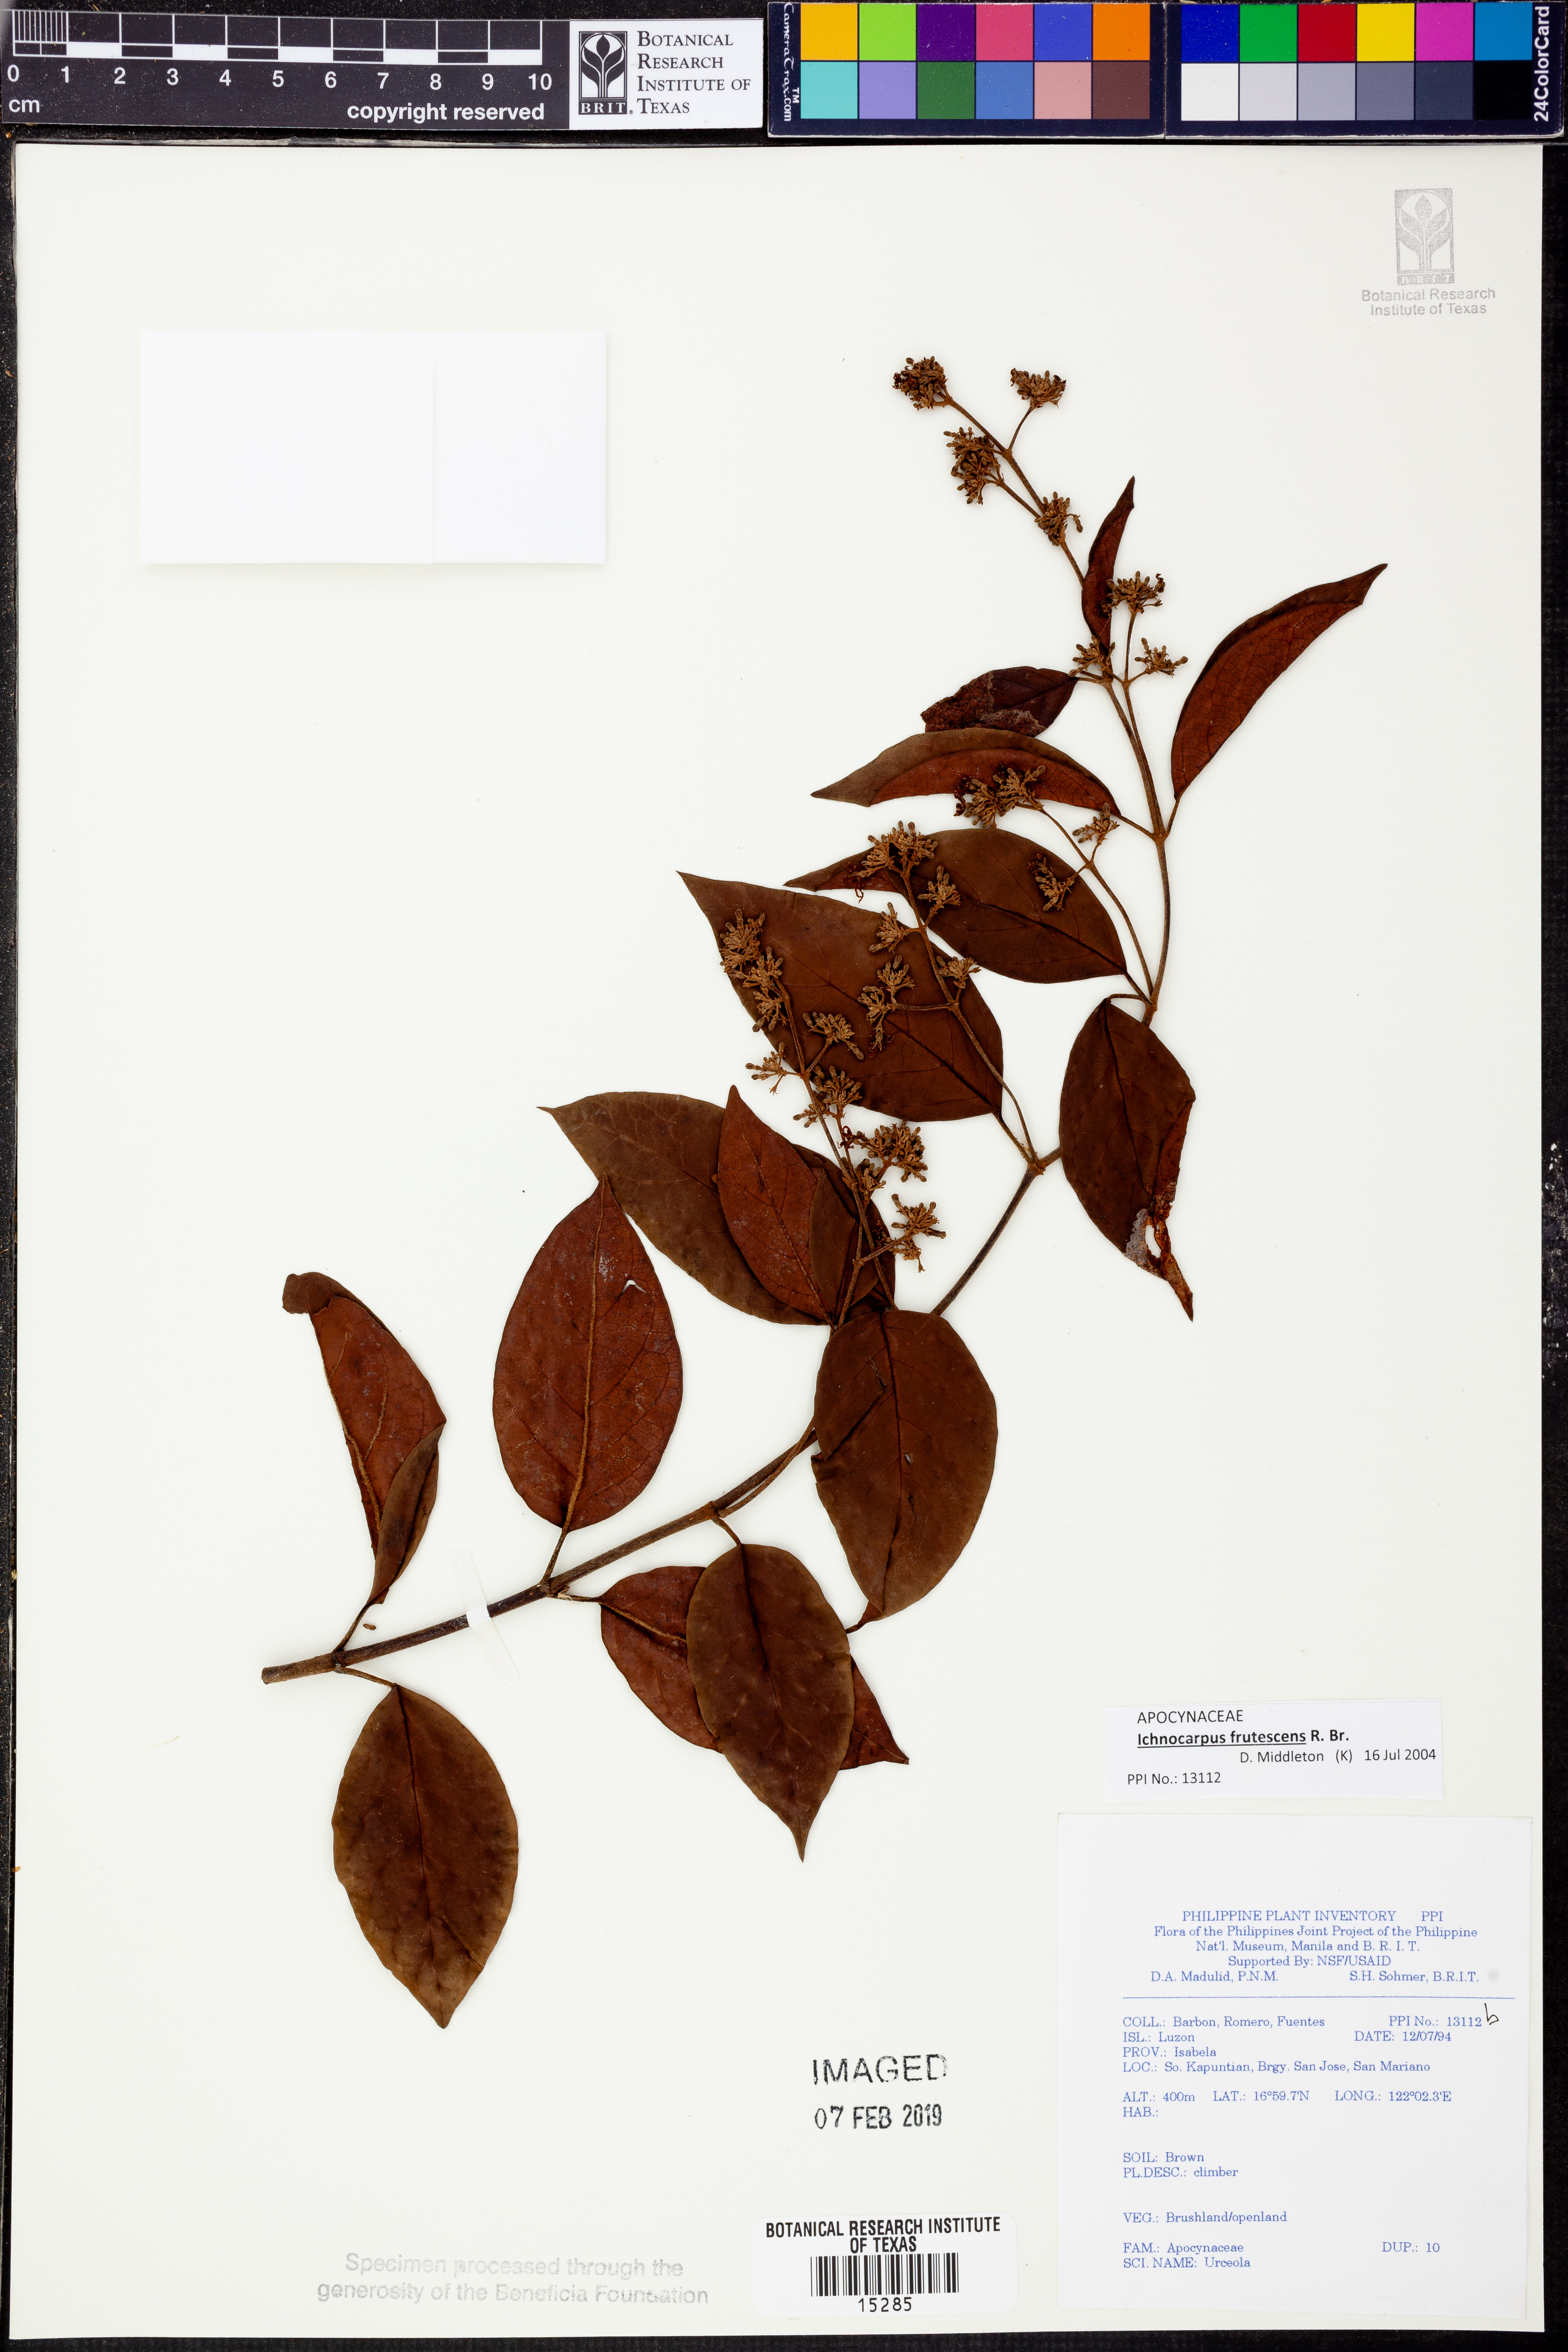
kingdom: Plantae
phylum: Tracheophyta
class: Magnoliopsida
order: Gentianales
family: Apocynaceae
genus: Ichnocarpus
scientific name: Ichnocarpus frutescens
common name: Ichnocarpus
